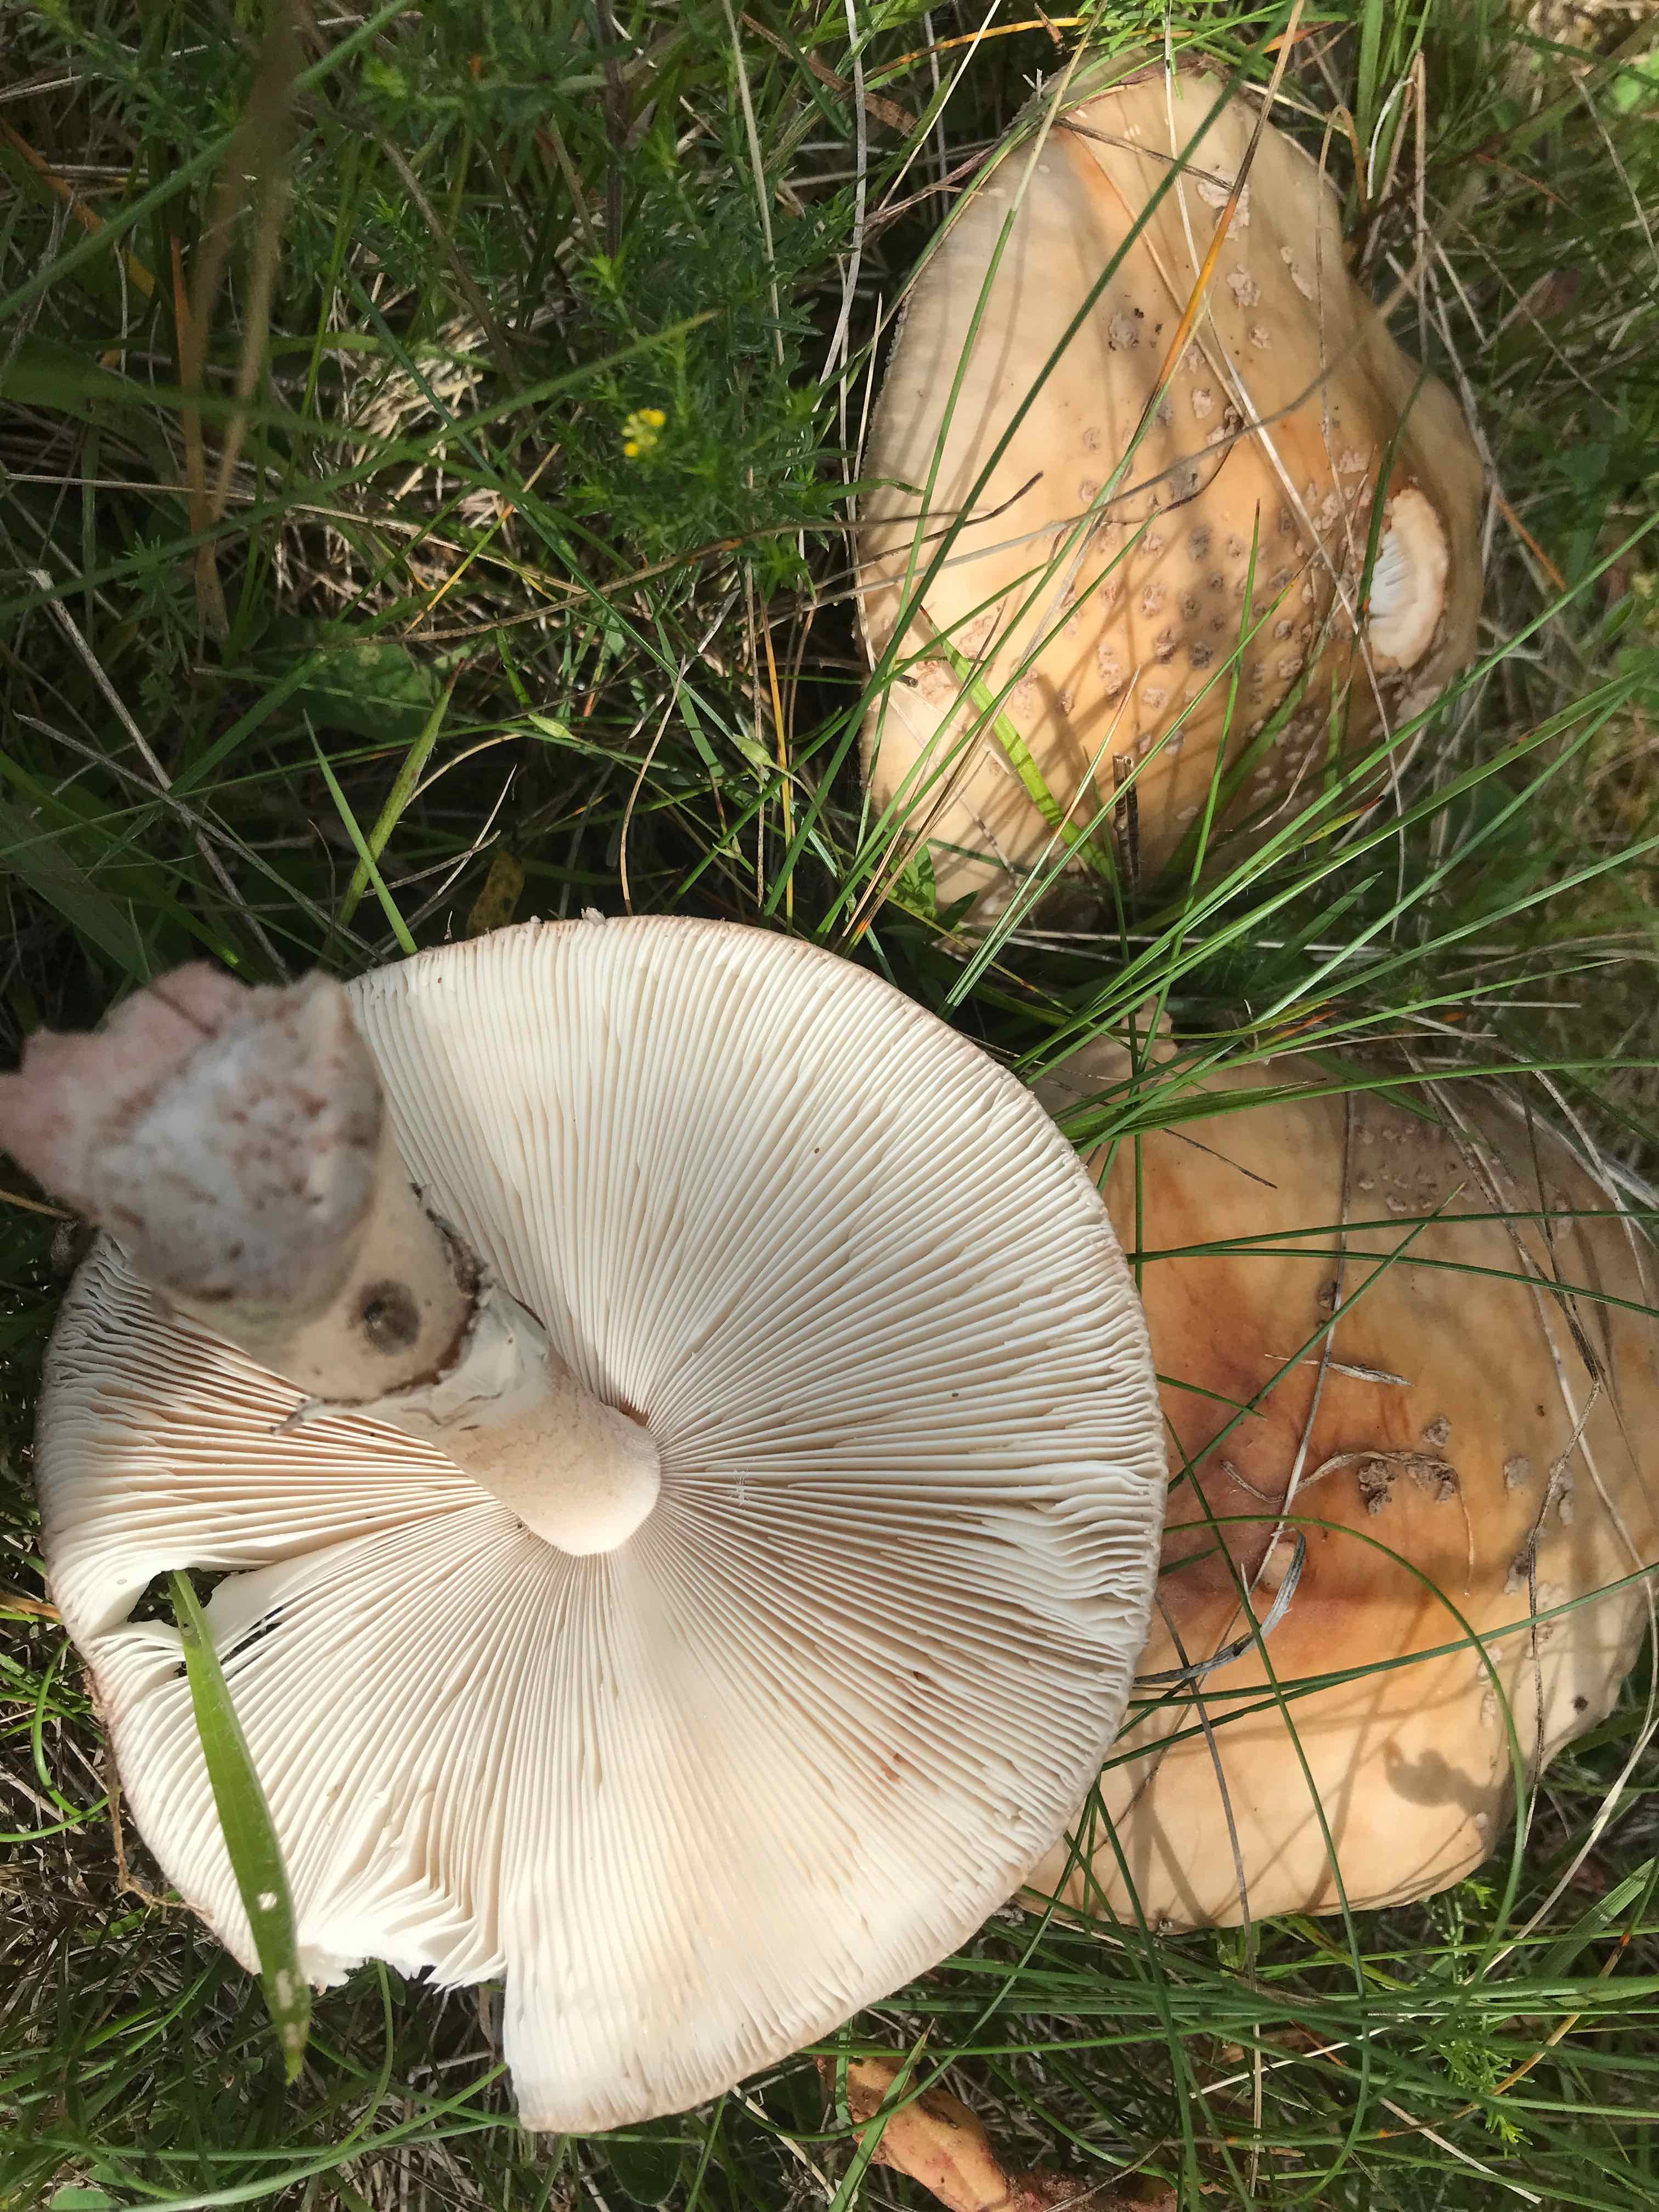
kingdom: Fungi
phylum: Basidiomycota
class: Agaricomycetes
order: Agaricales
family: Amanitaceae
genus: Amanita
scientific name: Amanita rubescens
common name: rødmende fluesvamp
